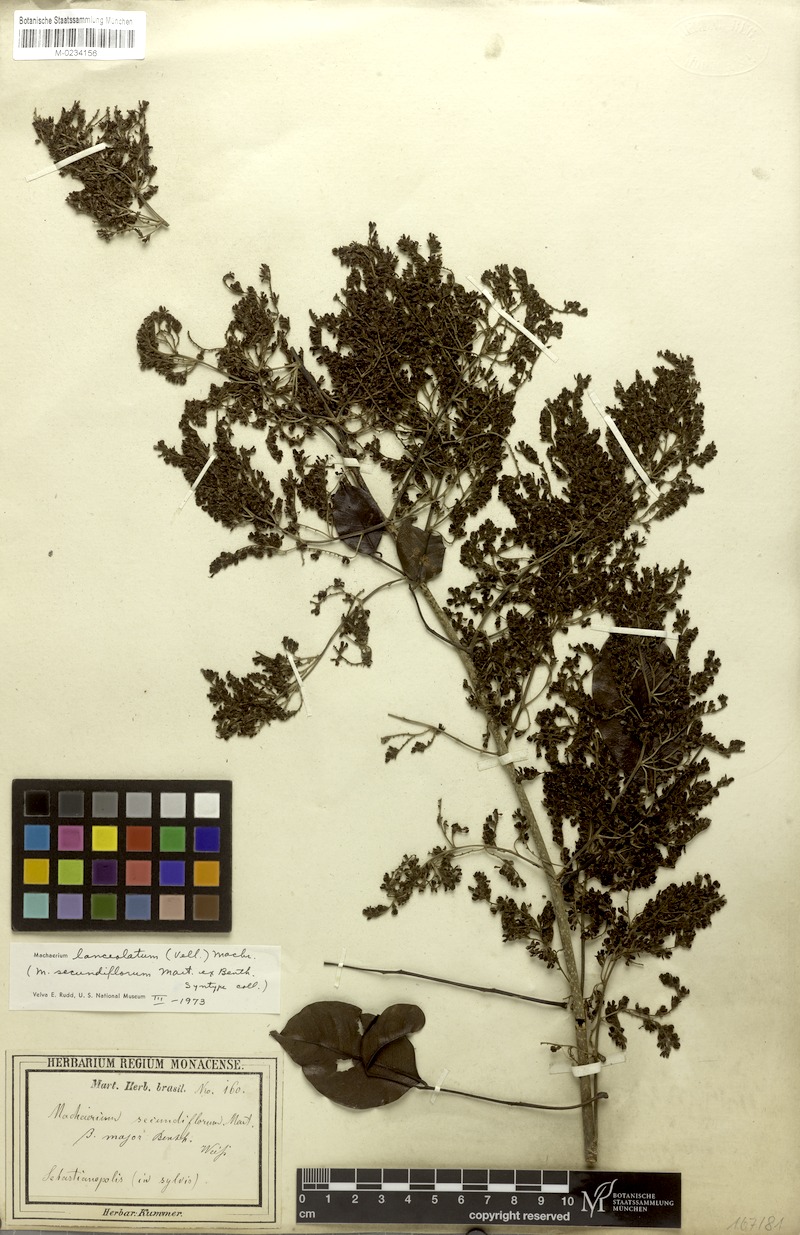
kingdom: Plantae
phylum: Tracheophyta
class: Magnoliopsida
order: Fabales
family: Fabaceae
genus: Machaerium
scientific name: Machaerium lanceolatum
